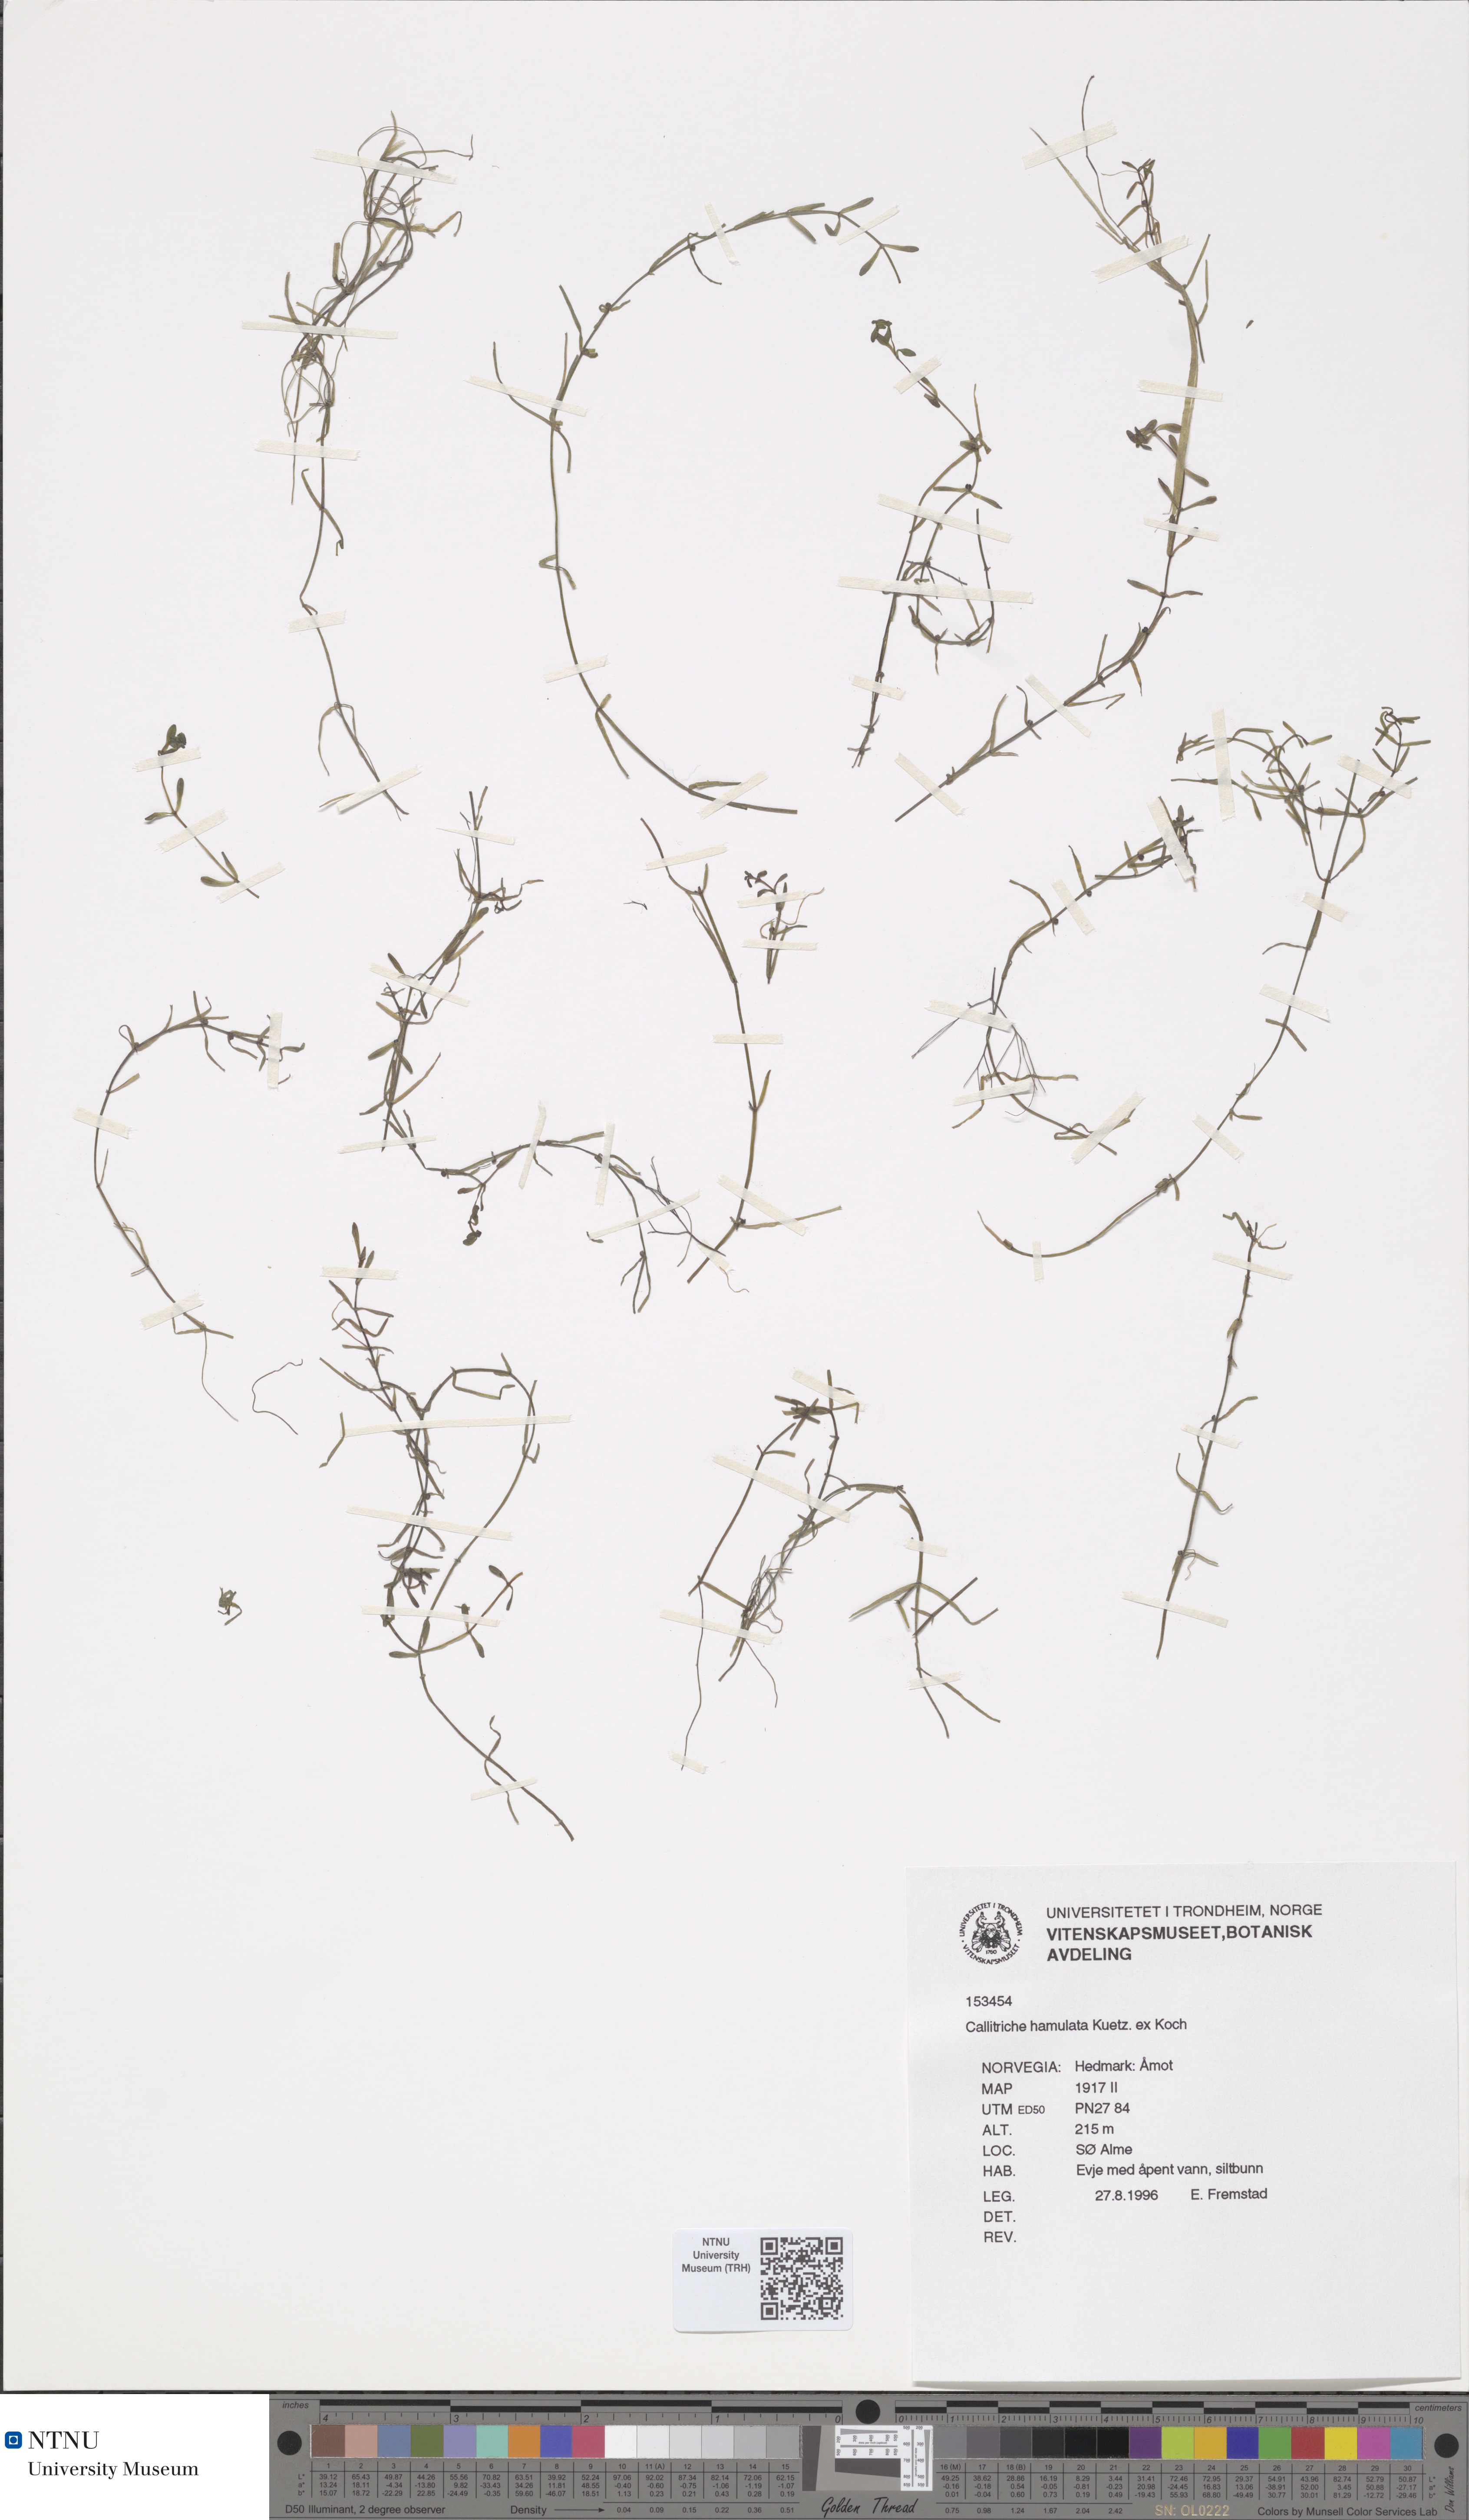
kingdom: Plantae
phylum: Tracheophyta
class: Magnoliopsida
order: Lamiales
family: Plantaginaceae
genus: Callitriche
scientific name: Callitriche hamulata
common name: Intermediate water-starwort
